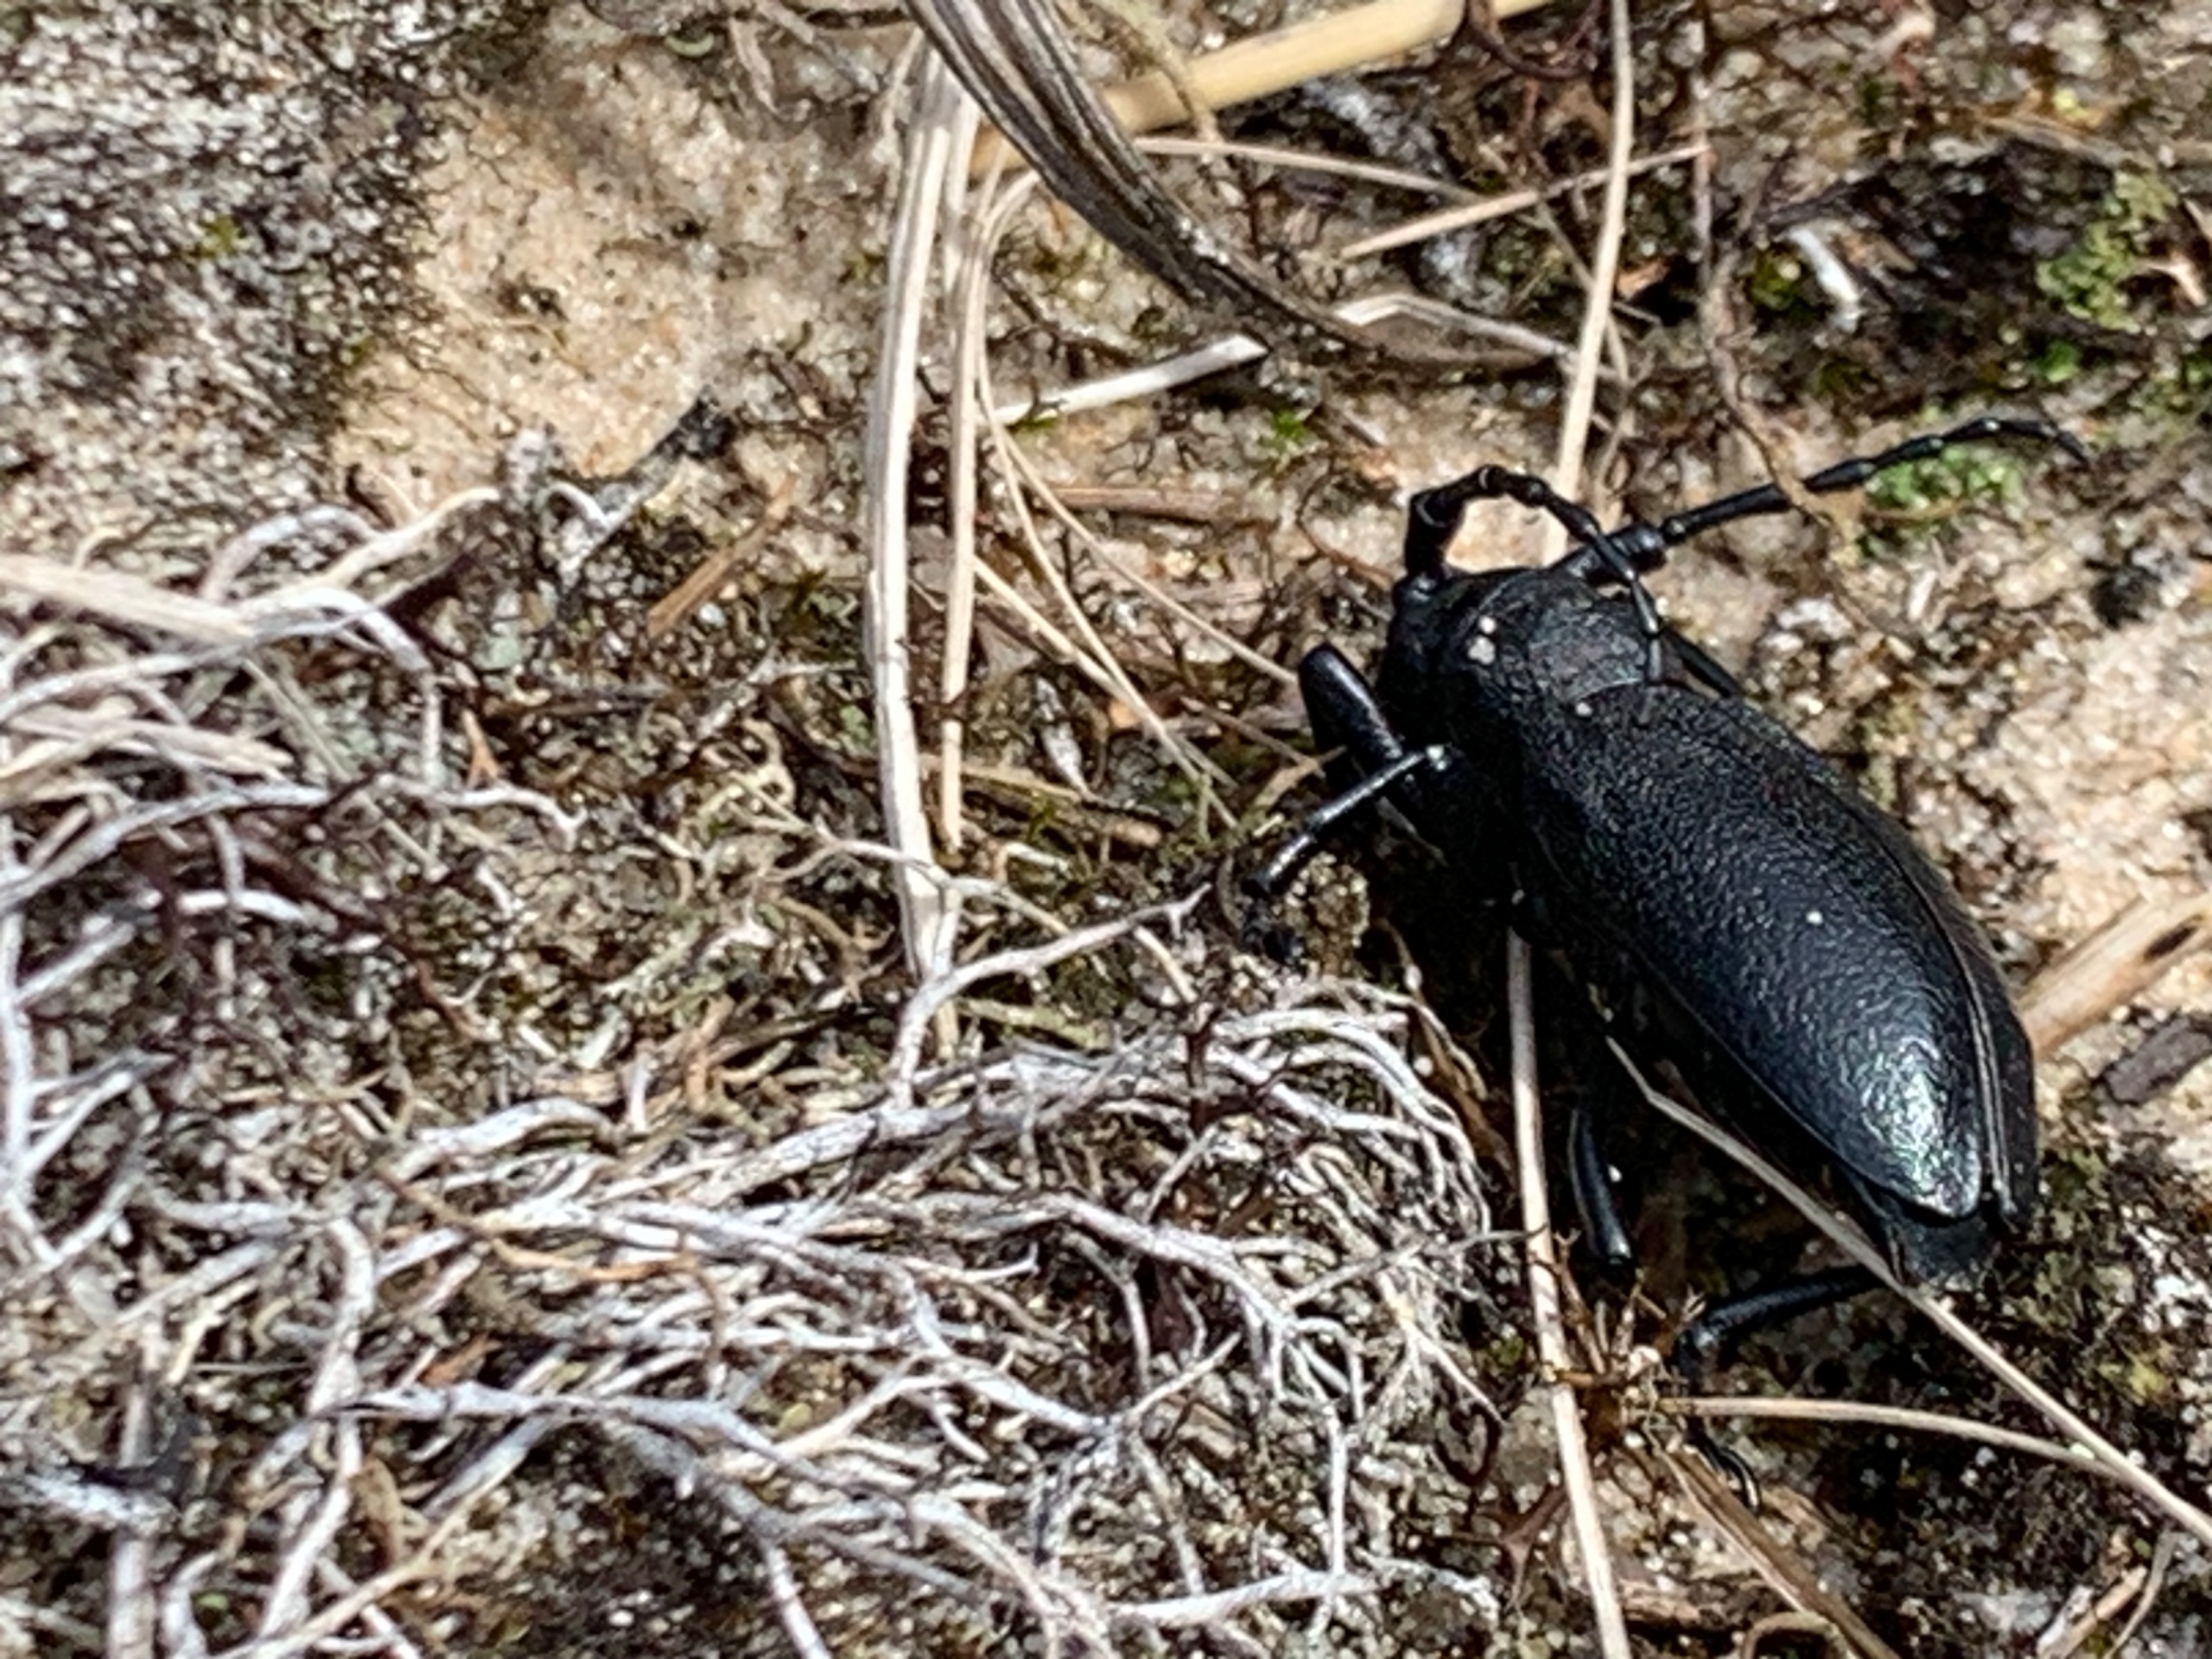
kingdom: Animalia
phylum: Arthropoda
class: Insecta
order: Coleoptera
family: Cerambycidae
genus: Lamia
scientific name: Lamia textor
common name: Væver
